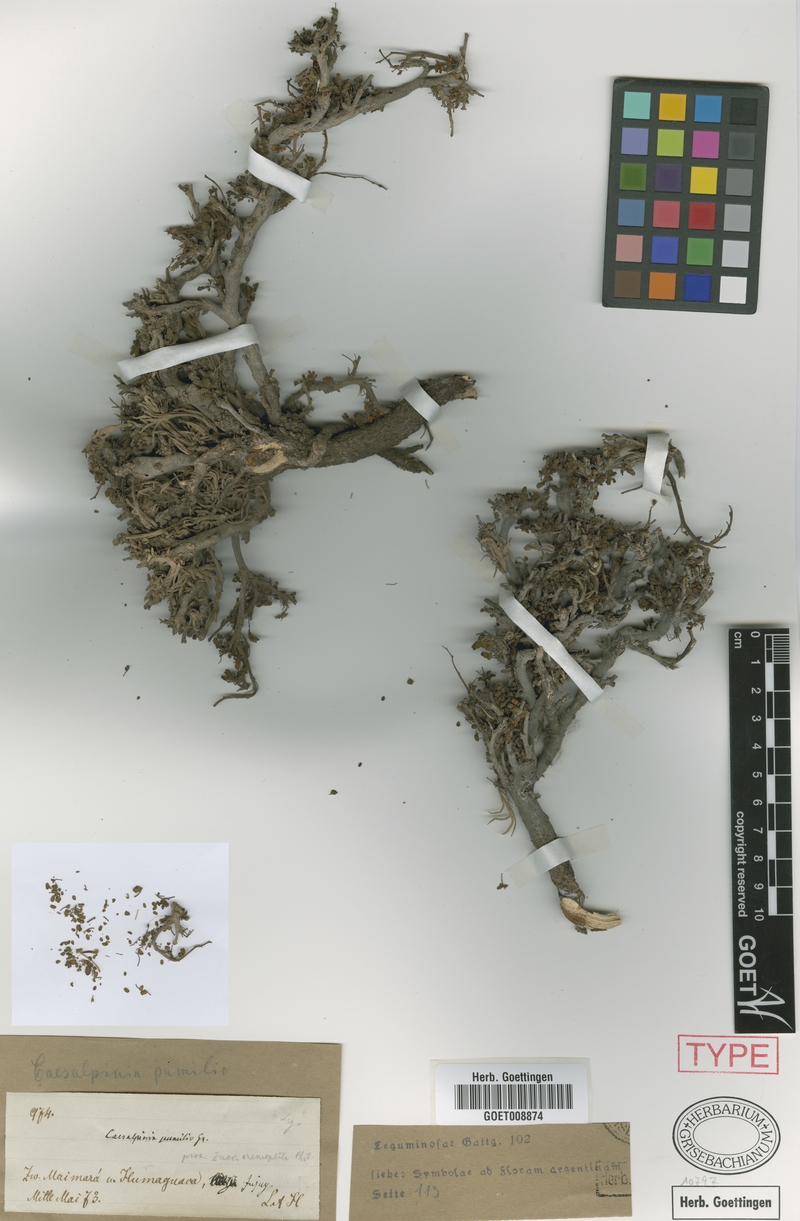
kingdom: Plantae
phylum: Tracheophyta
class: Magnoliopsida
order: Fabales
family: Fabaceae
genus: Hoffmannseggia
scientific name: Hoffmannseggia pumilio
